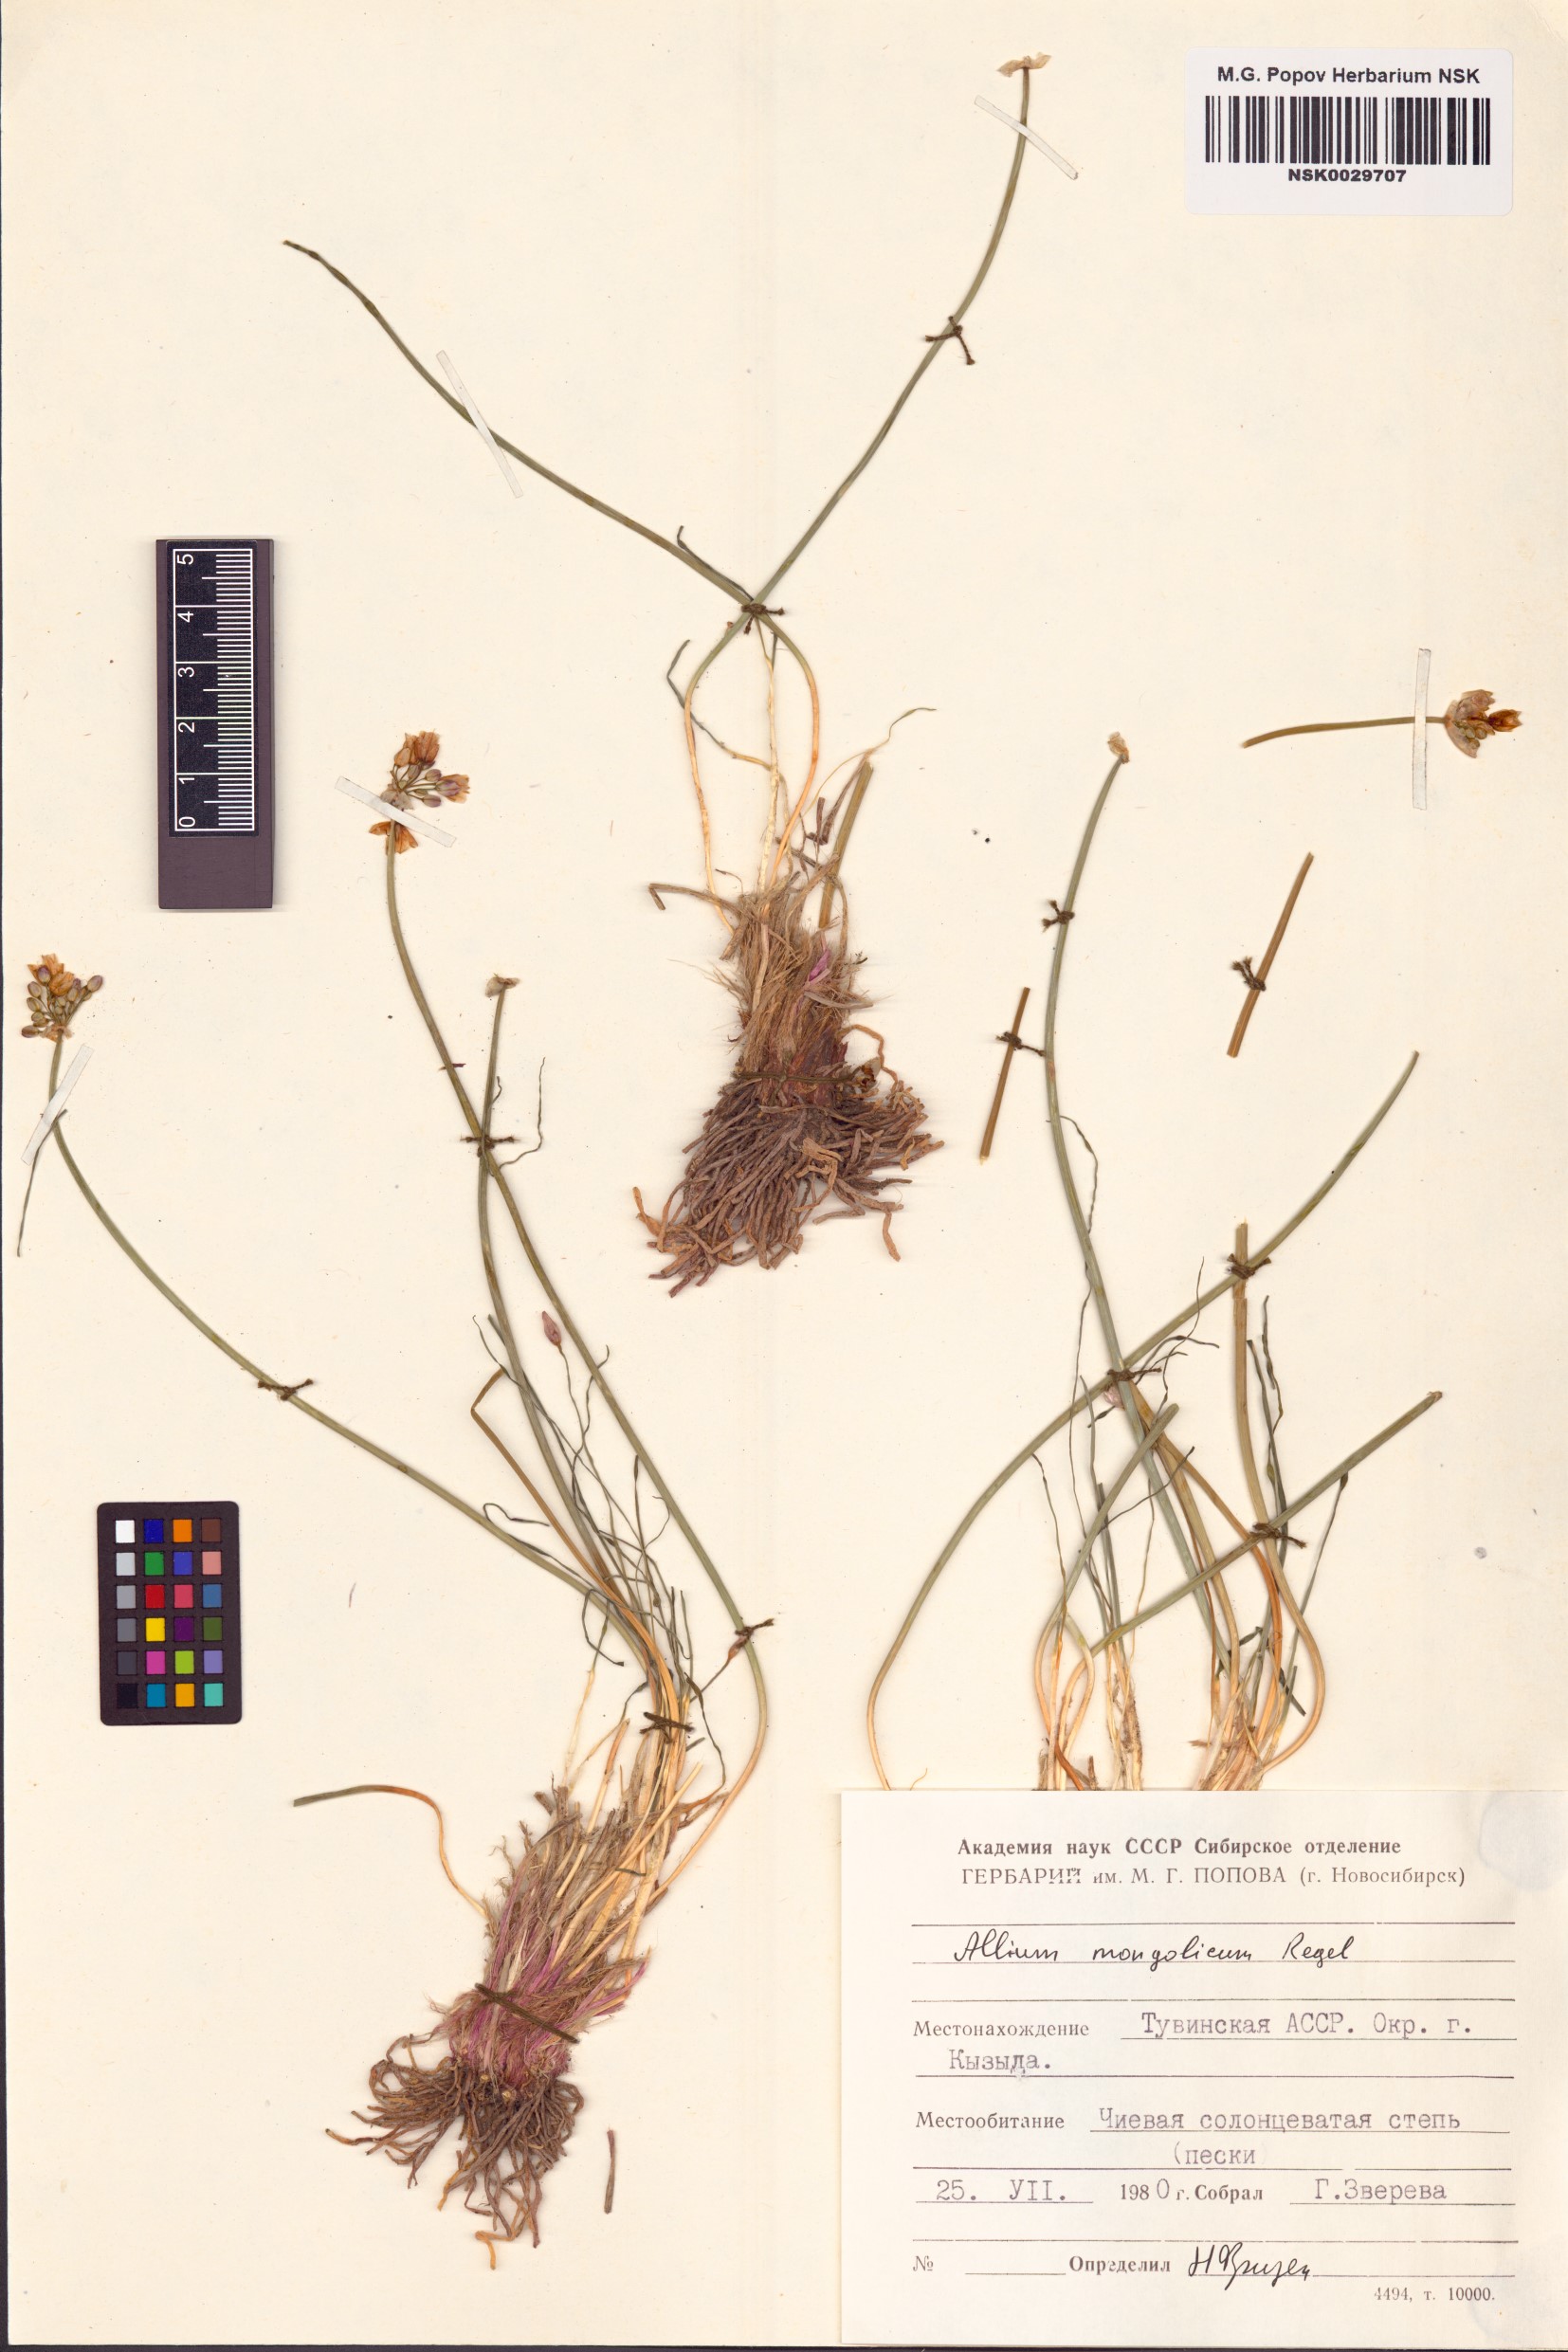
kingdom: Plantae
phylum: Tracheophyta
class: Liliopsida
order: Asparagales
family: Amaryllidaceae
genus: Allium
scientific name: Allium mongolicum
